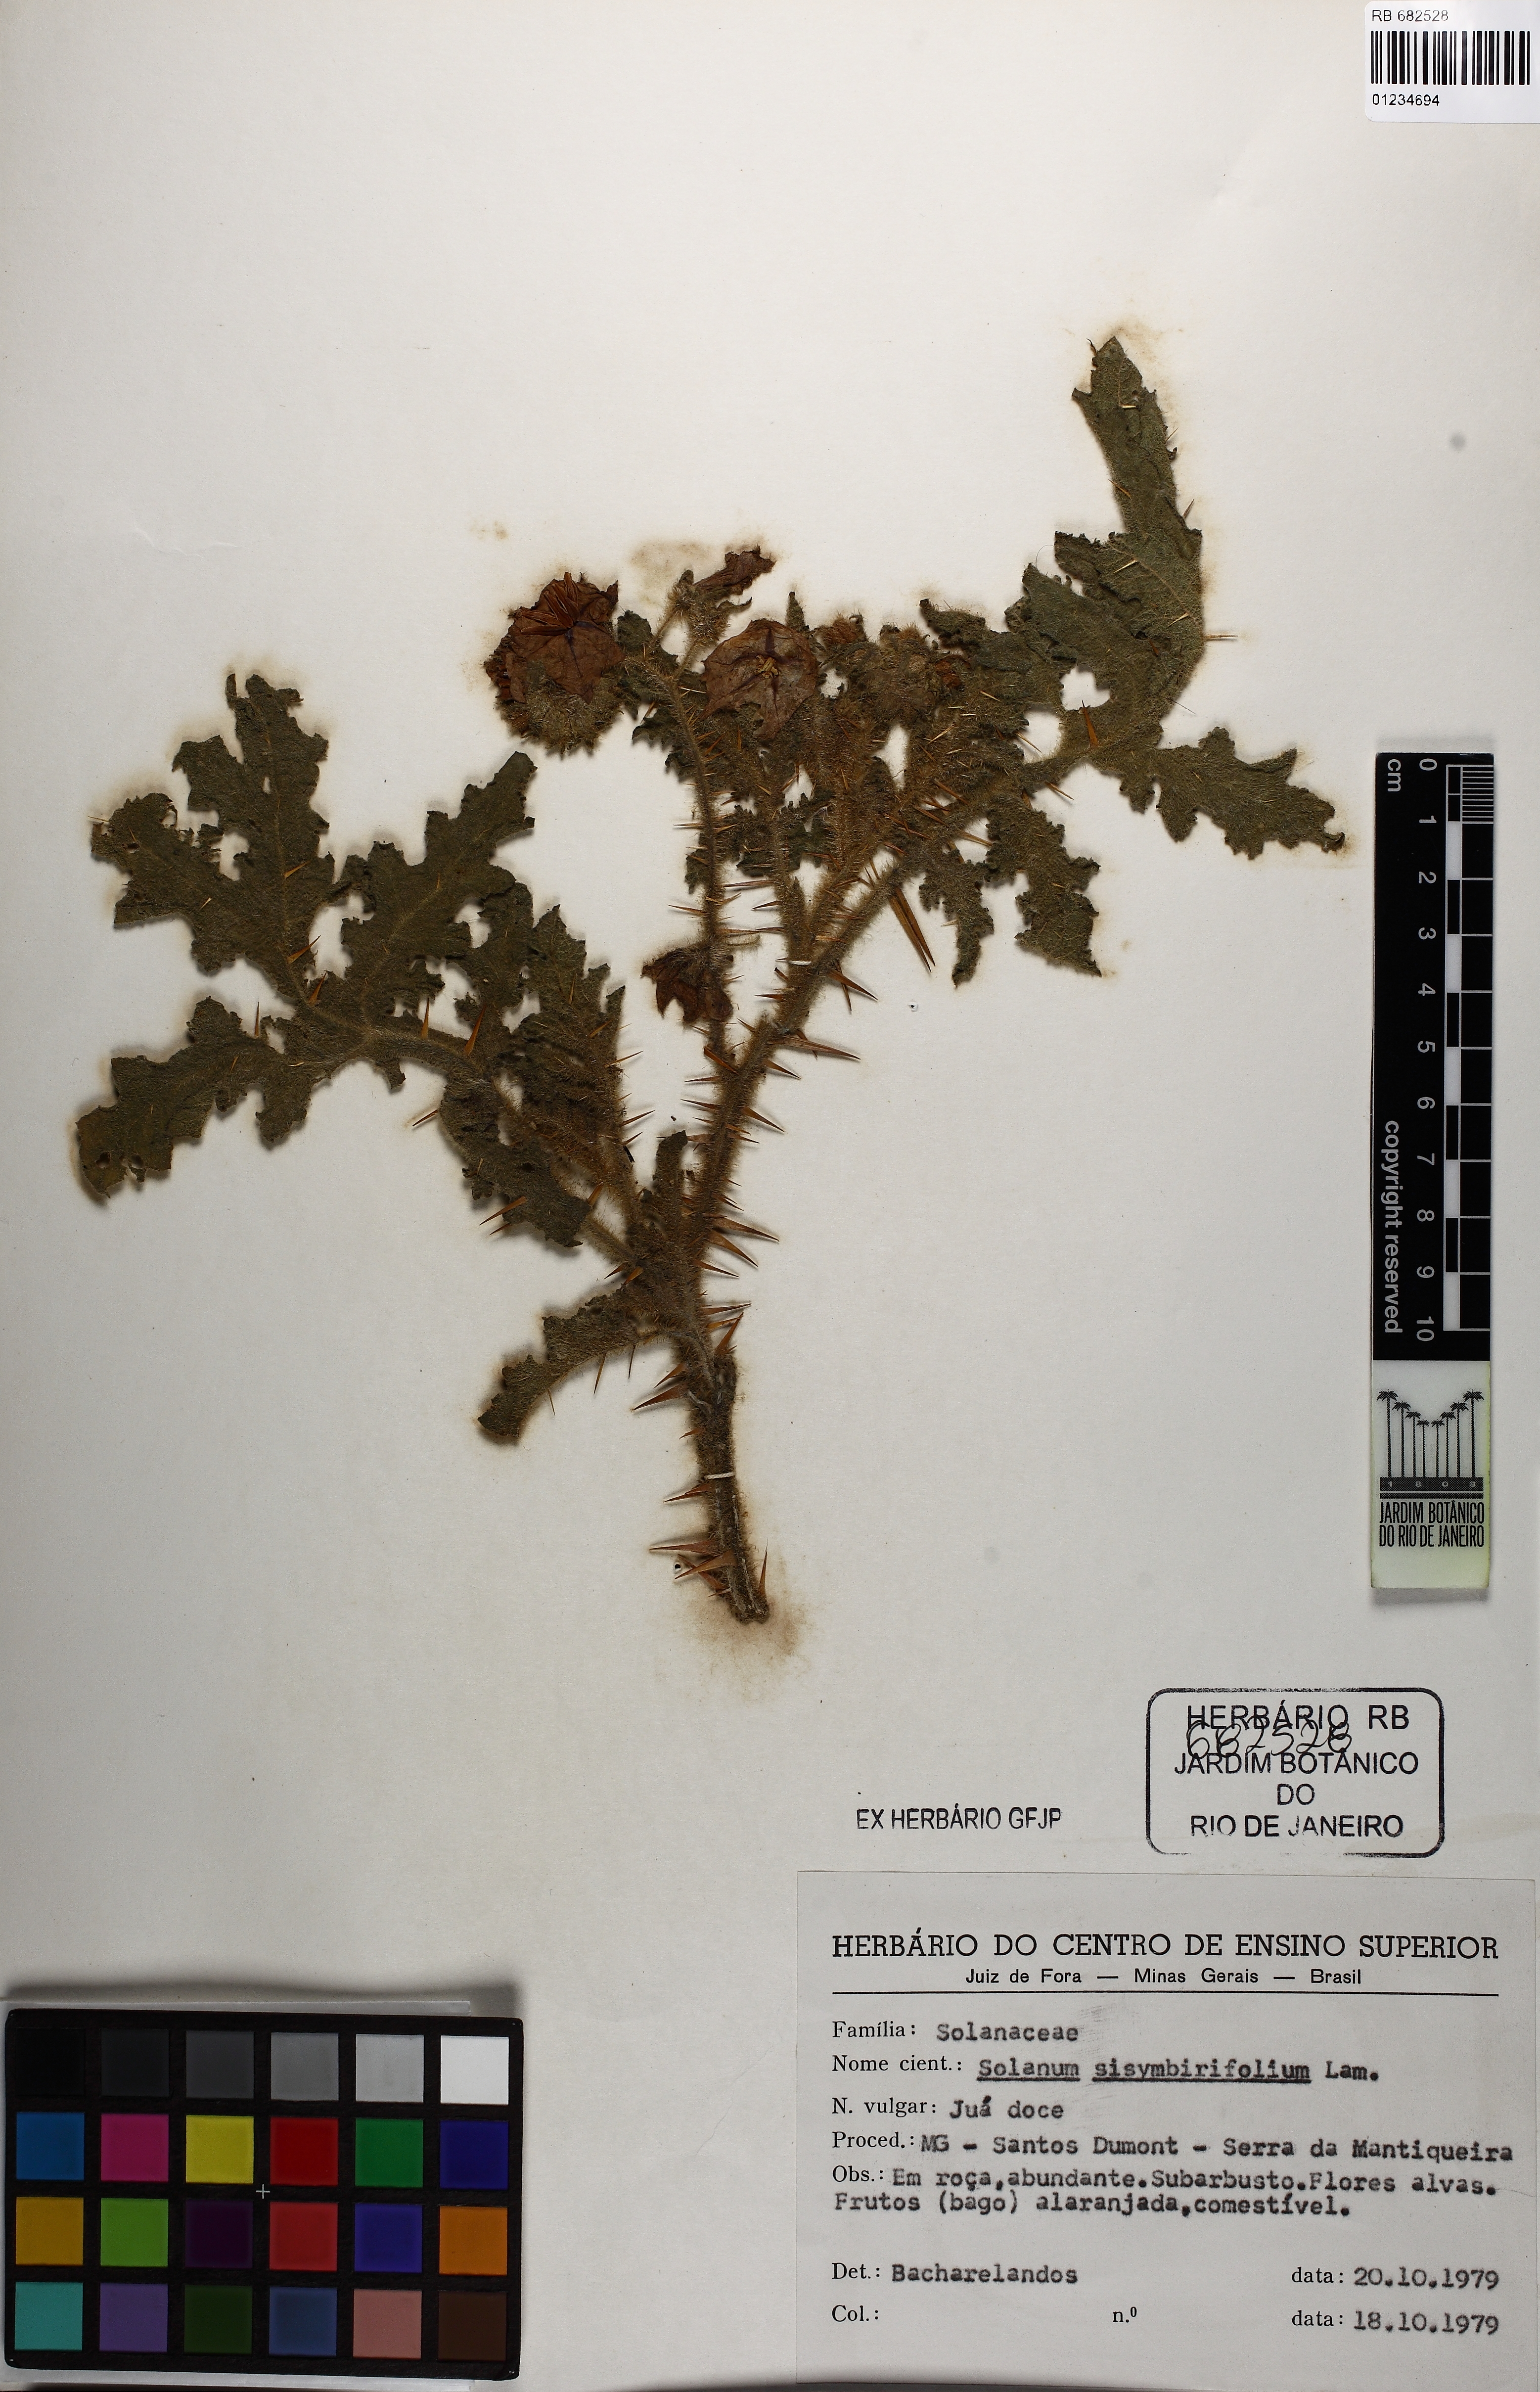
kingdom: Plantae
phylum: Tracheophyta
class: Magnoliopsida
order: Solanales
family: Solanaceae
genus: Solanum
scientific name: Solanum sisymbriifolium
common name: Red buffalo-bur
